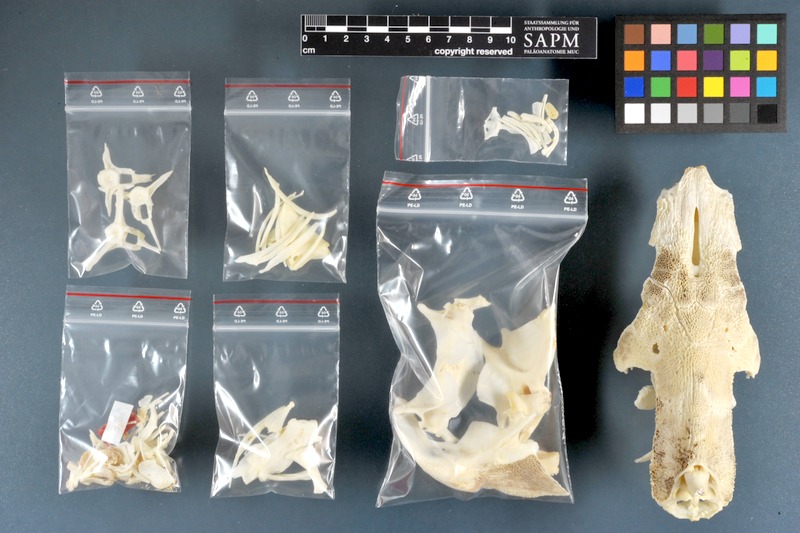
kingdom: Animalia
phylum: Chordata
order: Siluriformes
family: Mochokidae
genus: Synodontis
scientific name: Synodontis serratus
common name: Shield-head catfish
